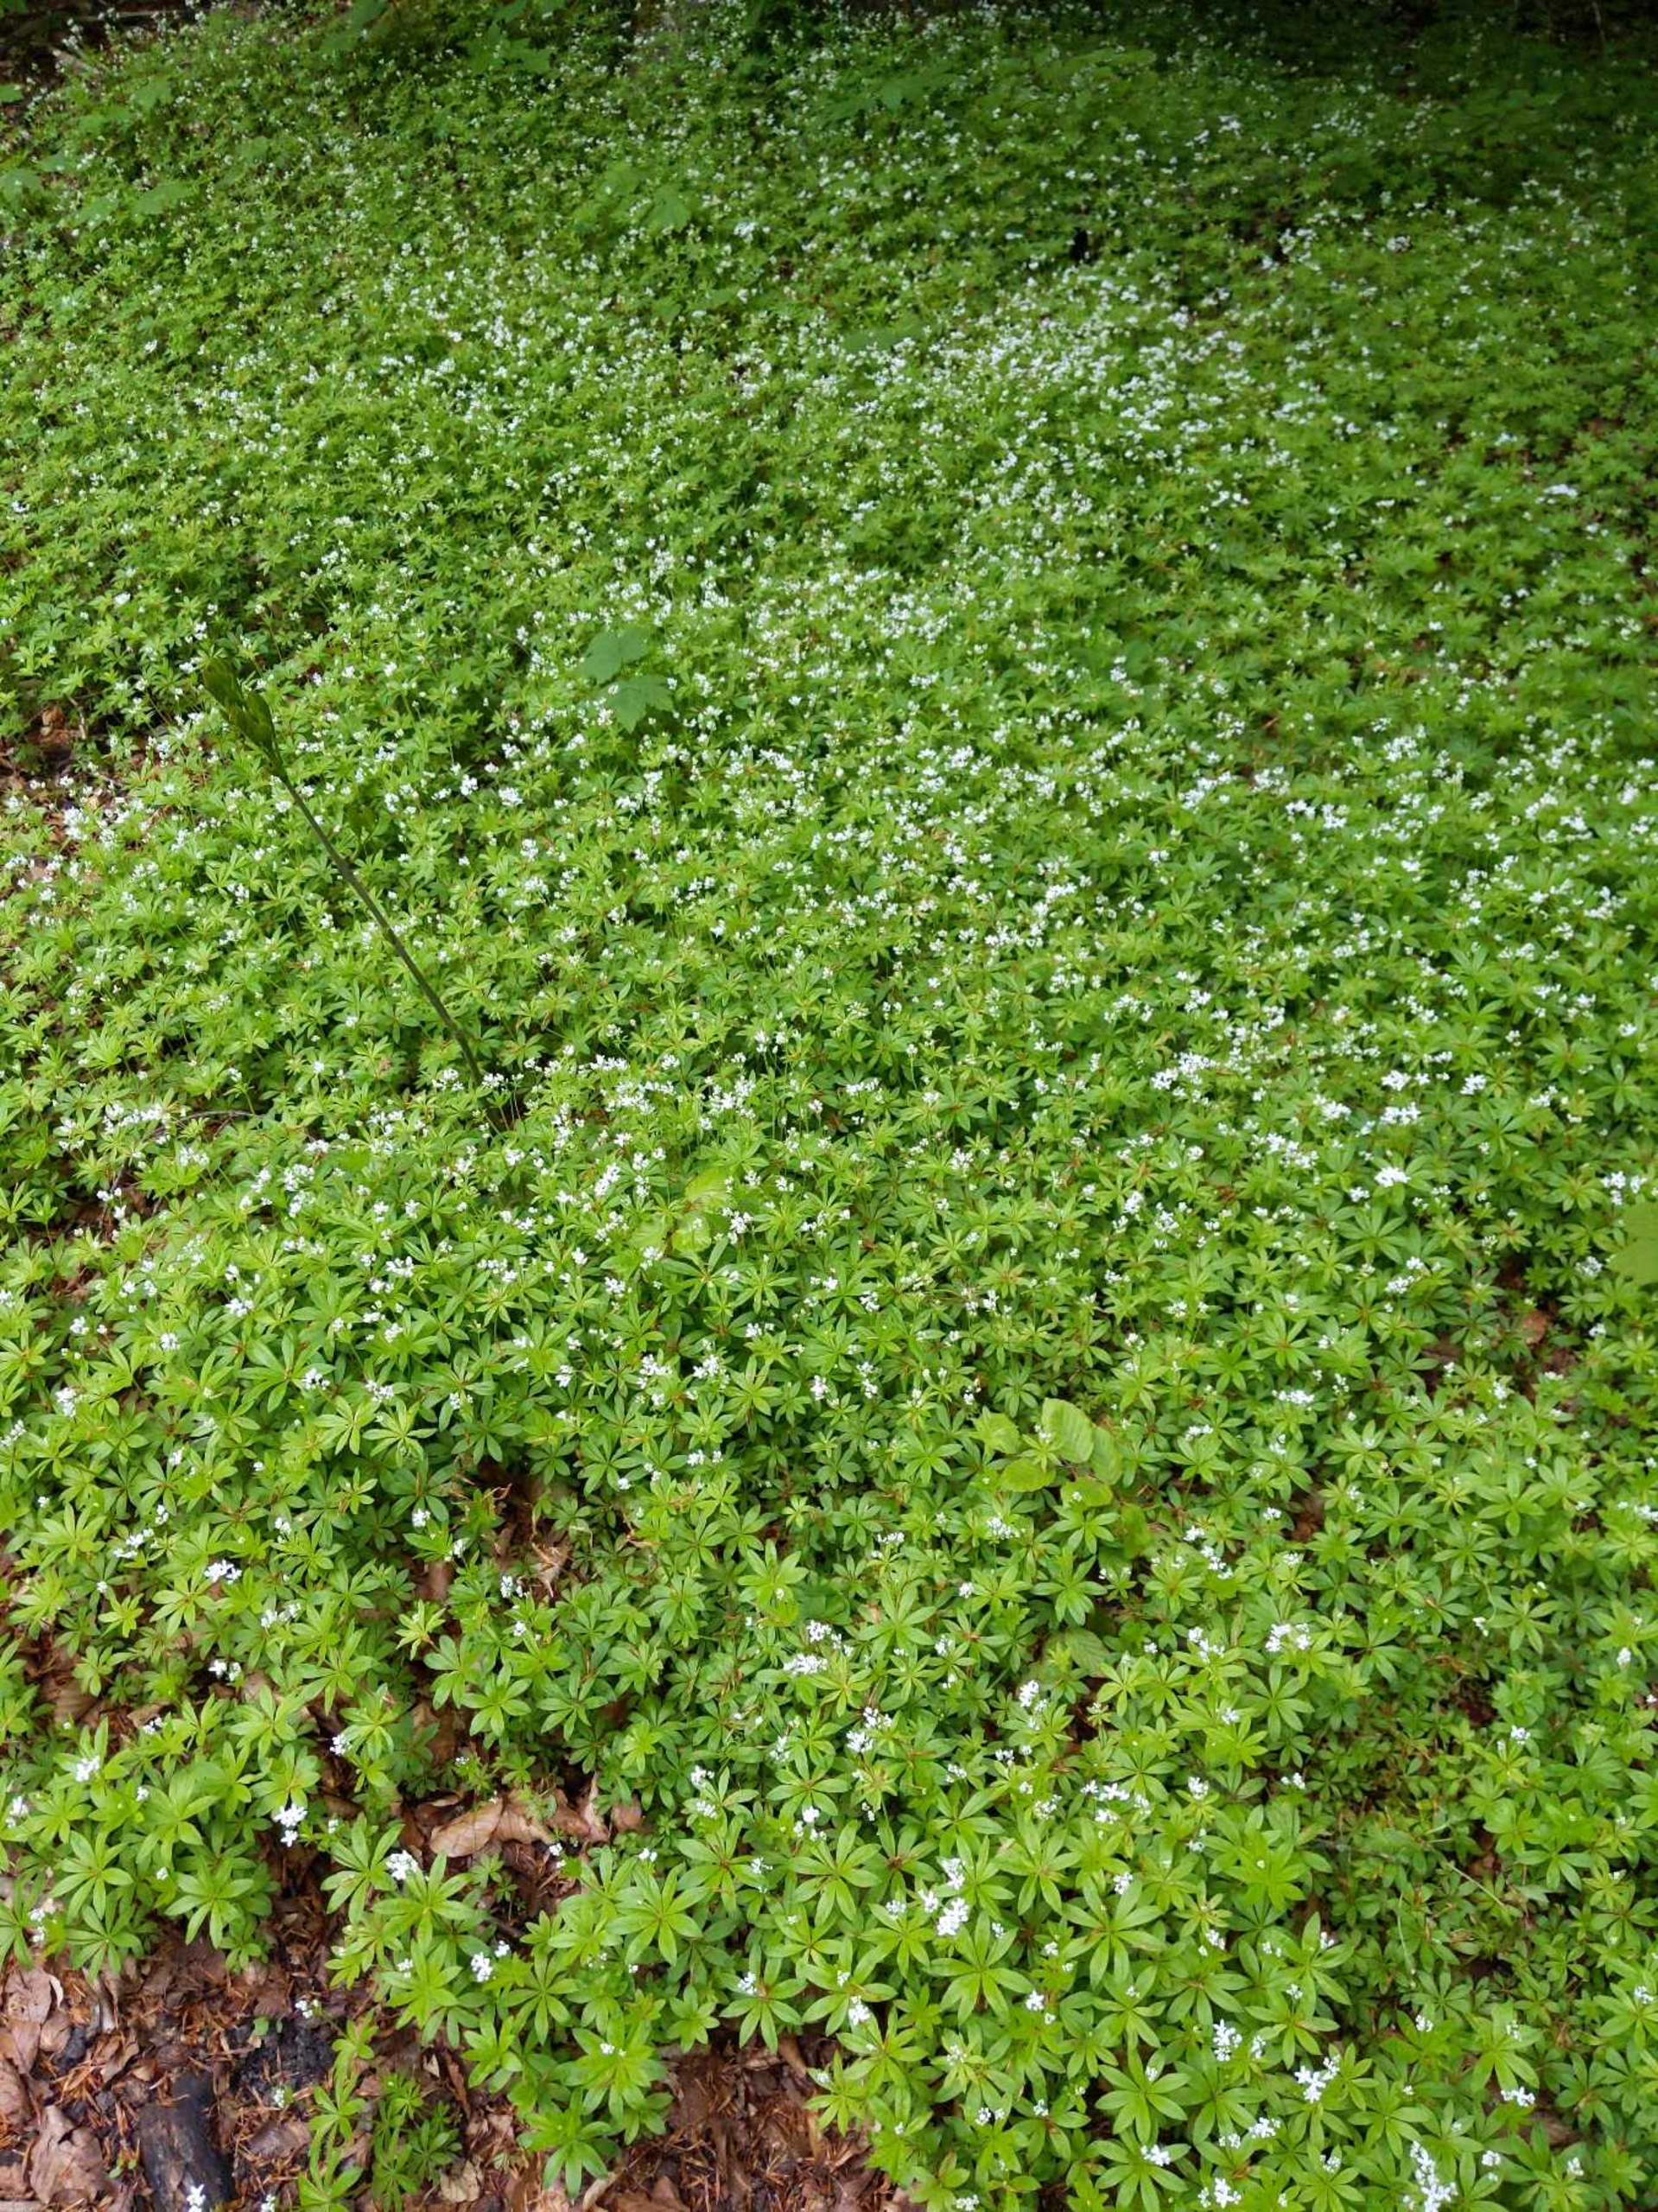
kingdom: Plantae
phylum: Tracheophyta
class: Magnoliopsida
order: Gentianales
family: Rubiaceae
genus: Galium
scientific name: Galium odoratum
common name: Skovmærke
